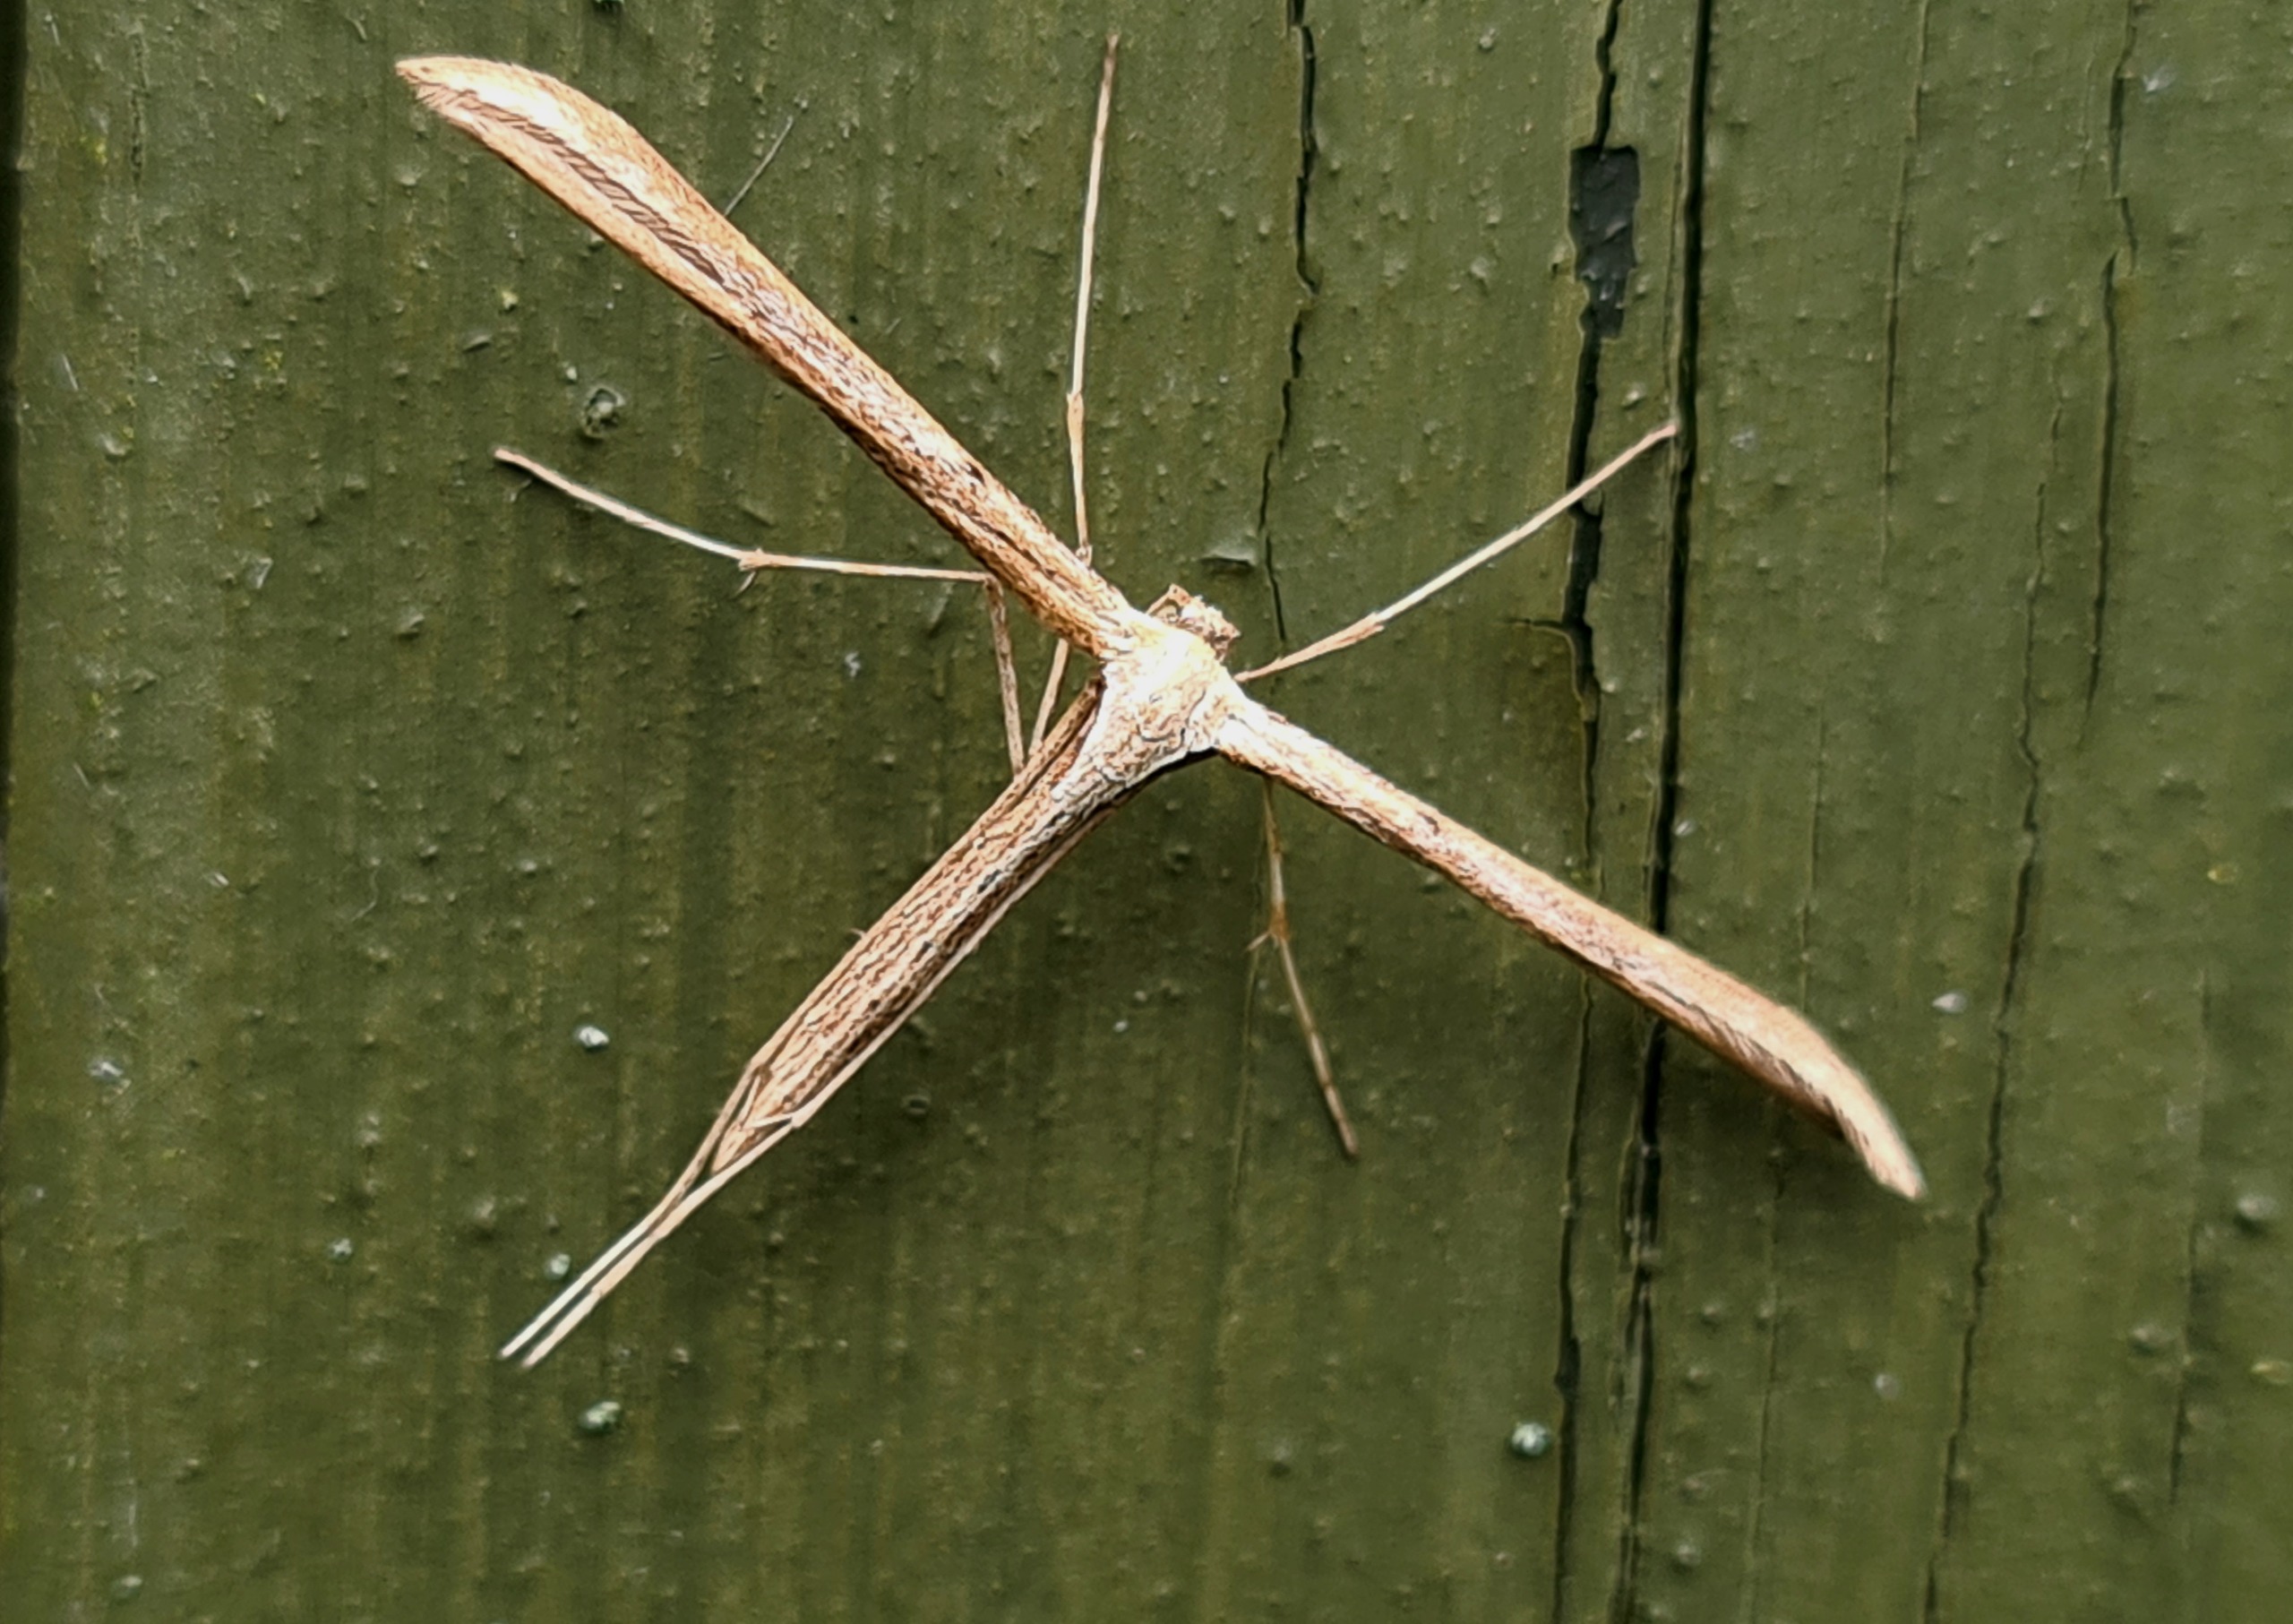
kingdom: Animalia
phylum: Arthropoda
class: Insecta
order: Lepidoptera
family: Pterophoridae
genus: Emmelina
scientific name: Emmelina monodactyla
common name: Snerlefjermøl
